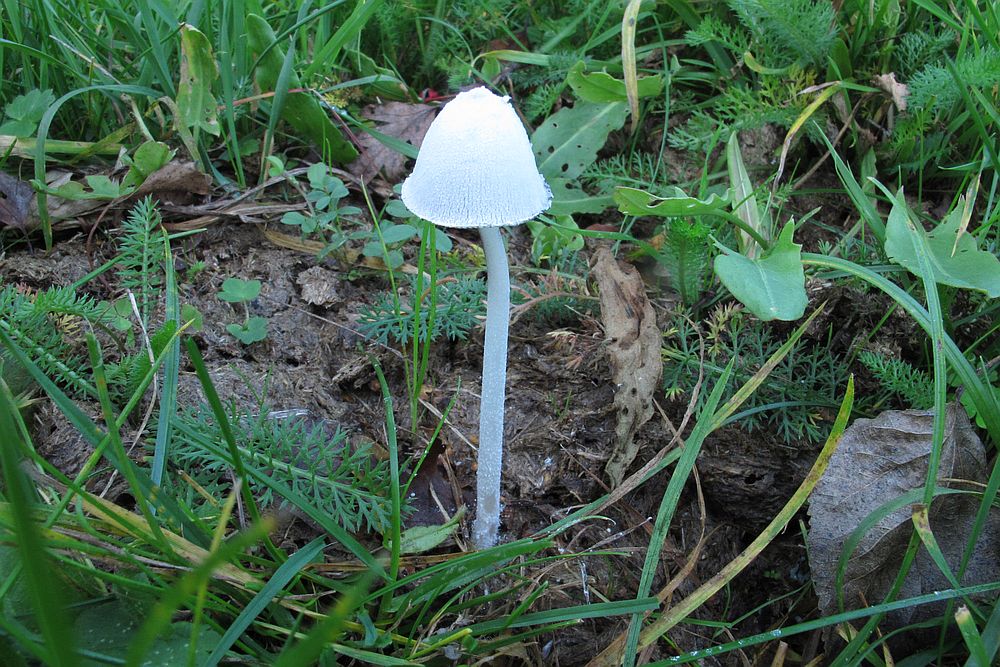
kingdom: Fungi
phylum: Basidiomycota
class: Agaricomycetes
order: Agaricales
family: Psathyrellaceae
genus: Coprinopsis
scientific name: Coprinopsis nivea
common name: snehvid blækhat
